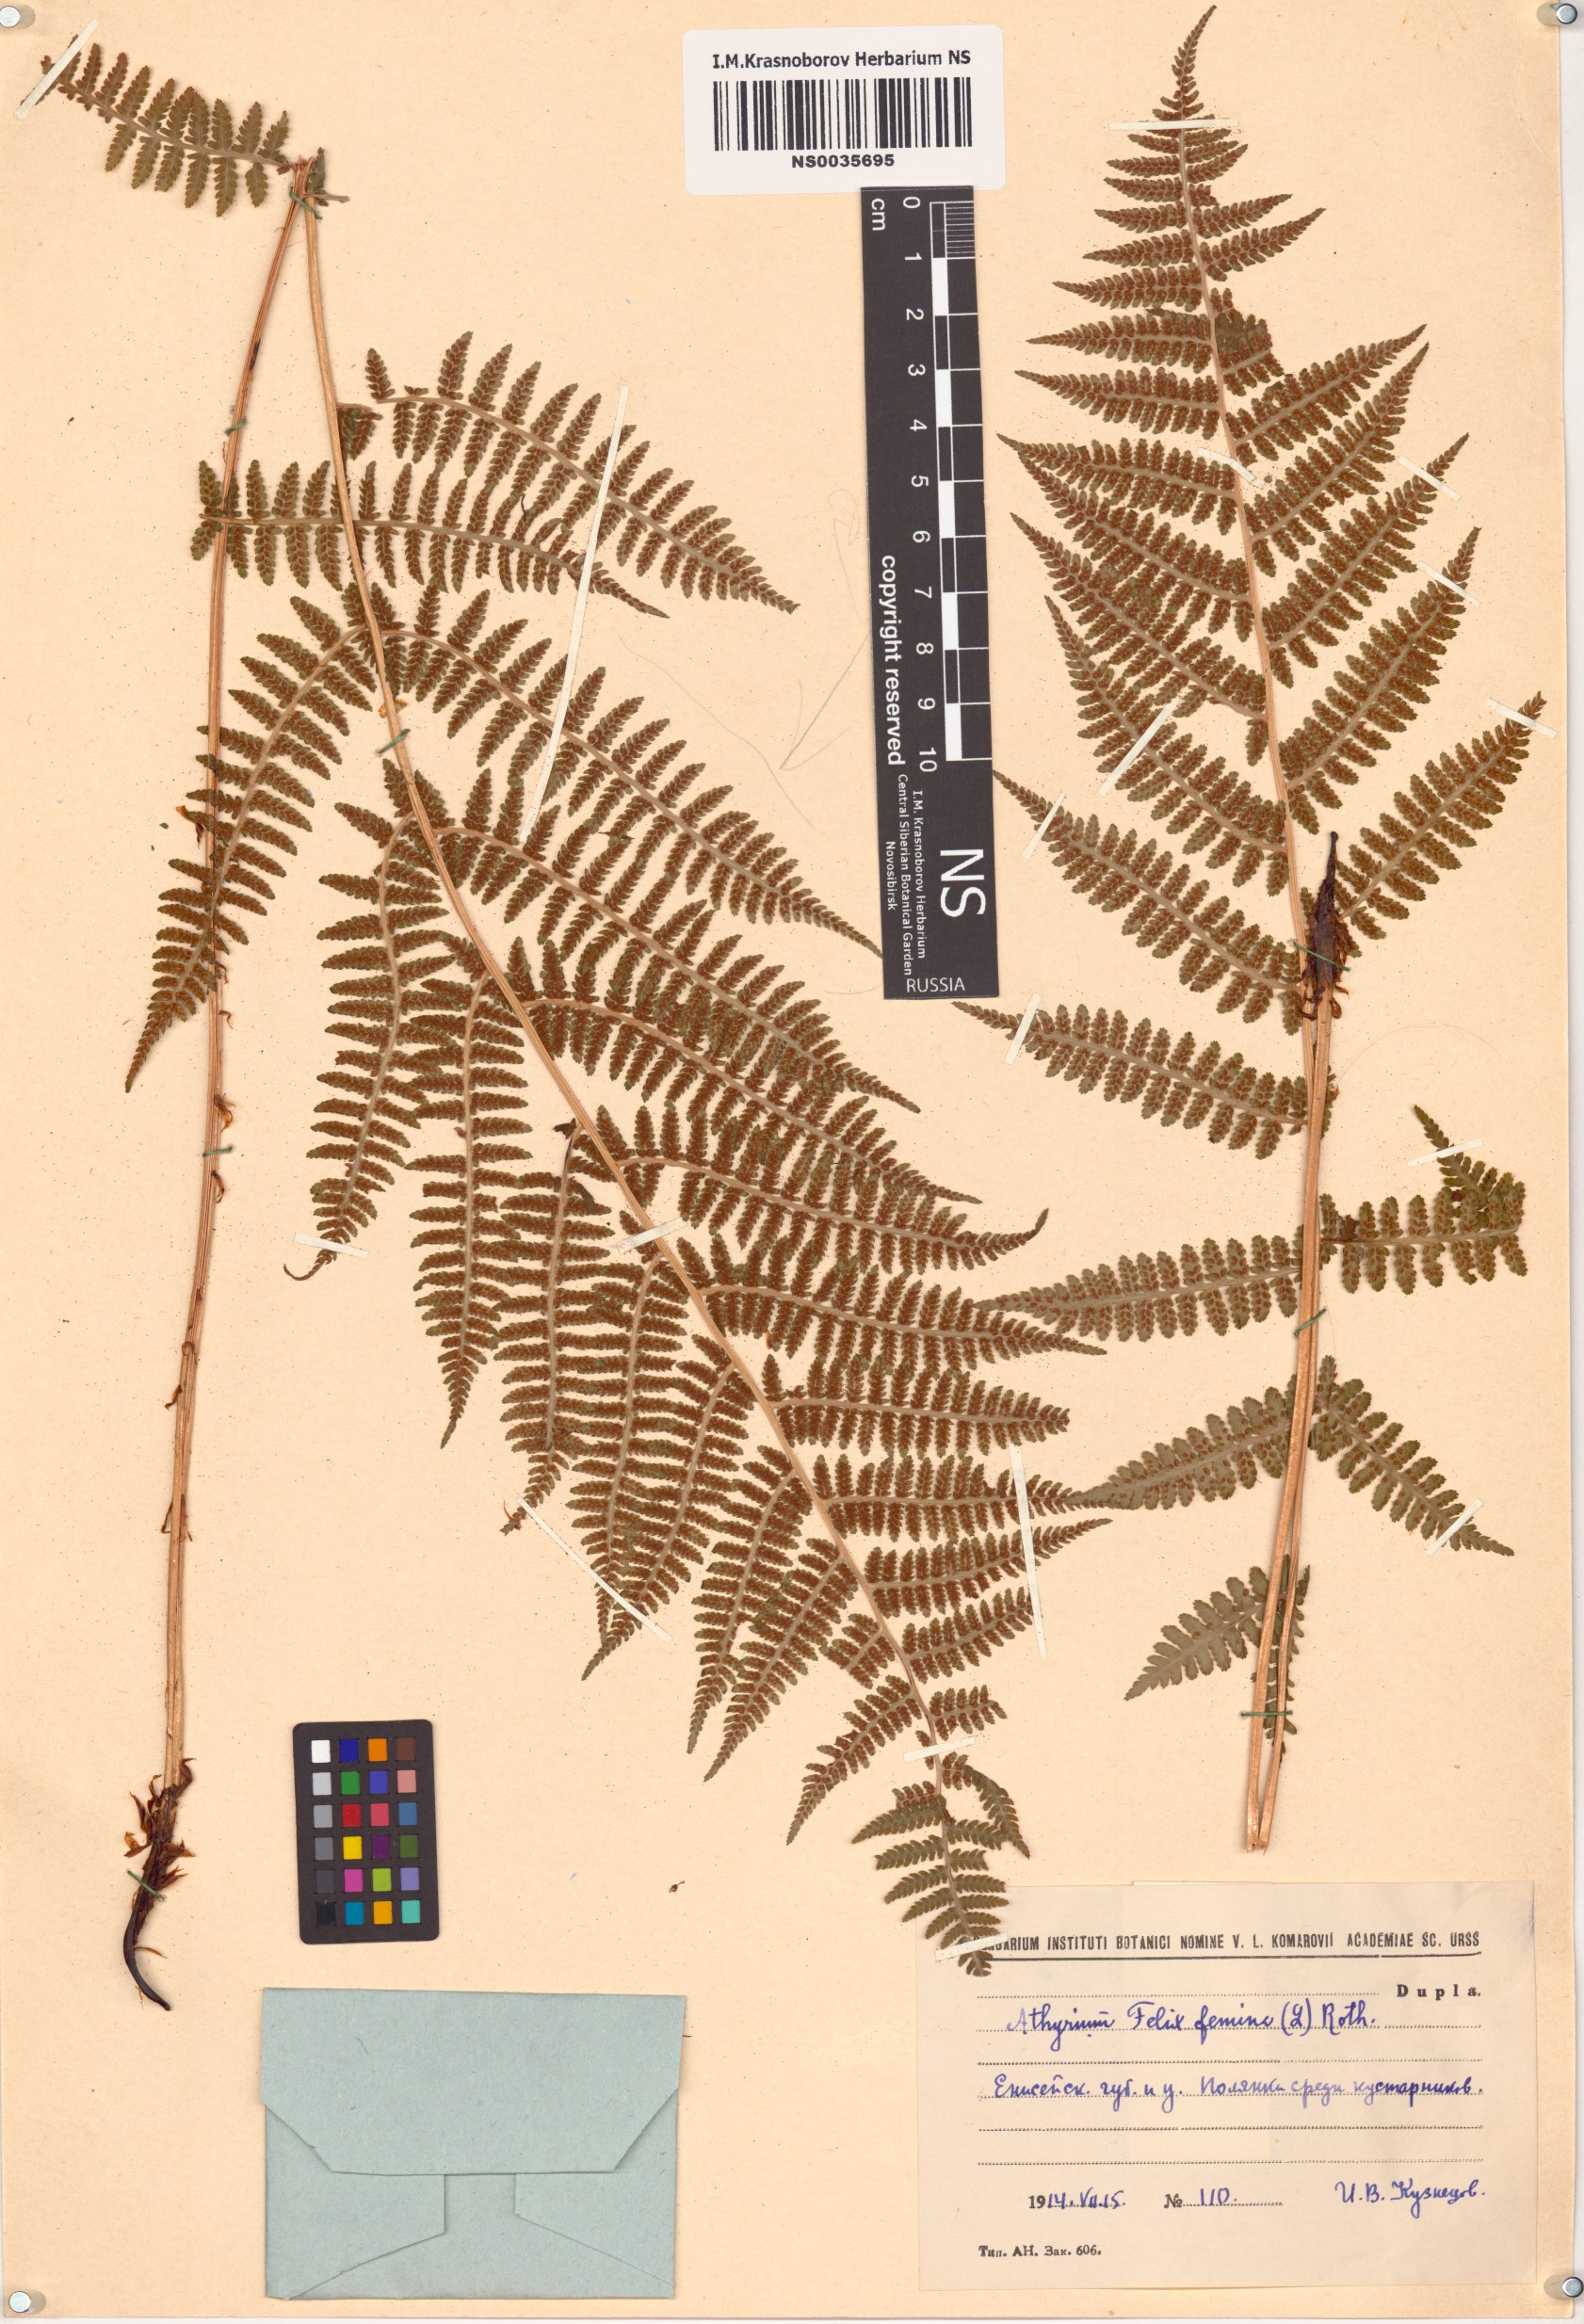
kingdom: Plantae
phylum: Tracheophyta
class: Polypodiopsida
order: Polypodiales
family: Athyriaceae
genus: Athyrium
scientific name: Athyrium filix-femina
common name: Lady fern
